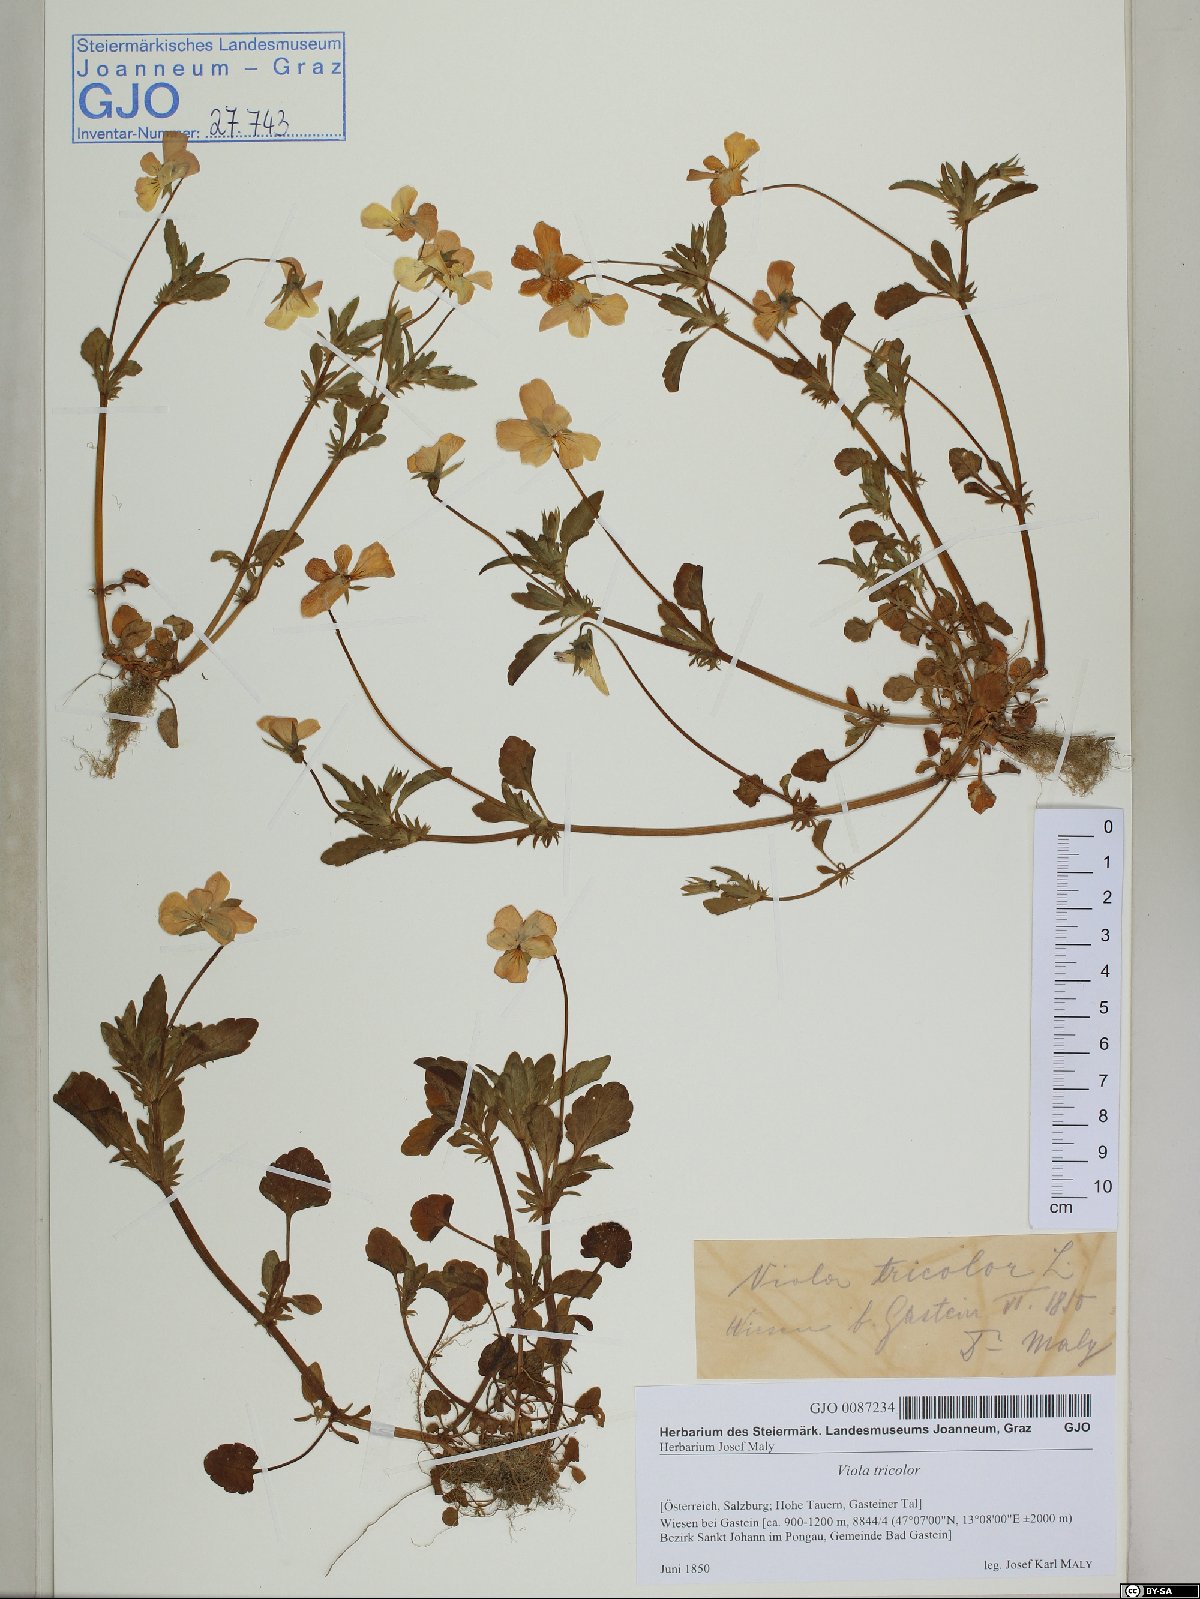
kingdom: Plantae
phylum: Tracheophyta
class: Magnoliopsida
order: Malpighiales
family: Violaceae
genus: Viola
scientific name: Viola tricolor
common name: Pansy
